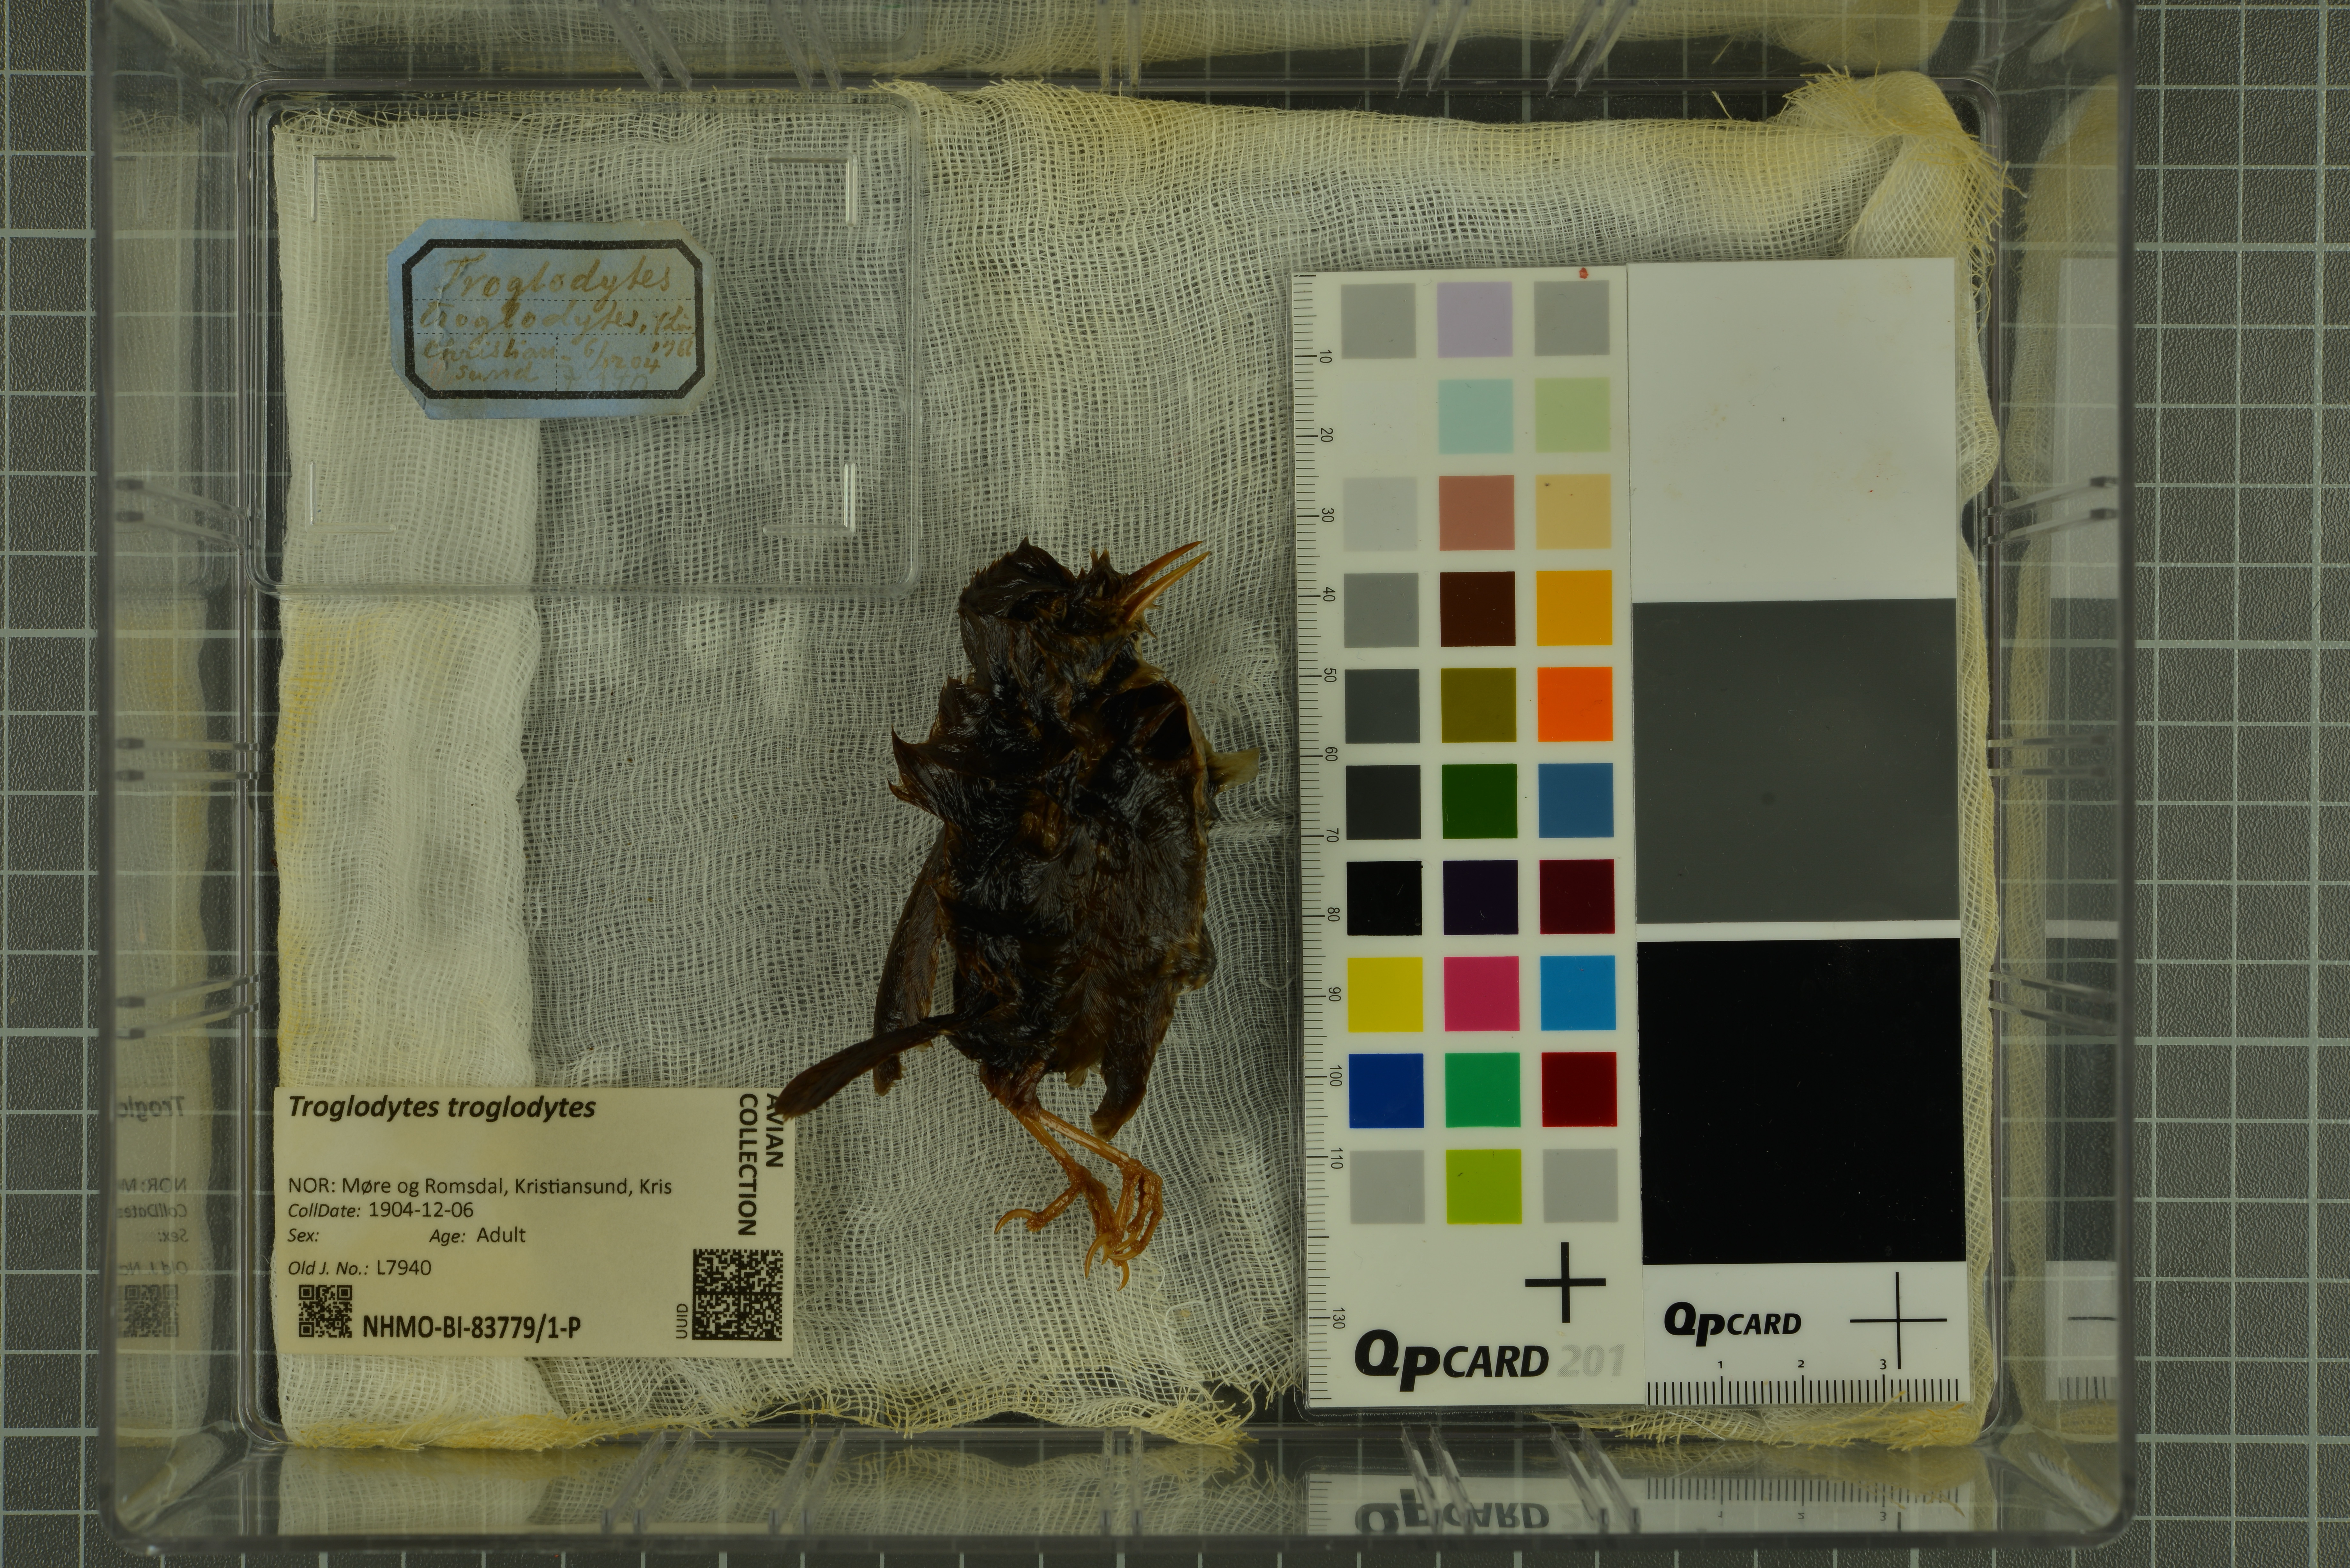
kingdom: Animalia
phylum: Chordata
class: Aves
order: Passeriformes
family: Troglodytidae
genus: Troglodytes
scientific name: Troglodytes troglodytes
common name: Eurasian wren
